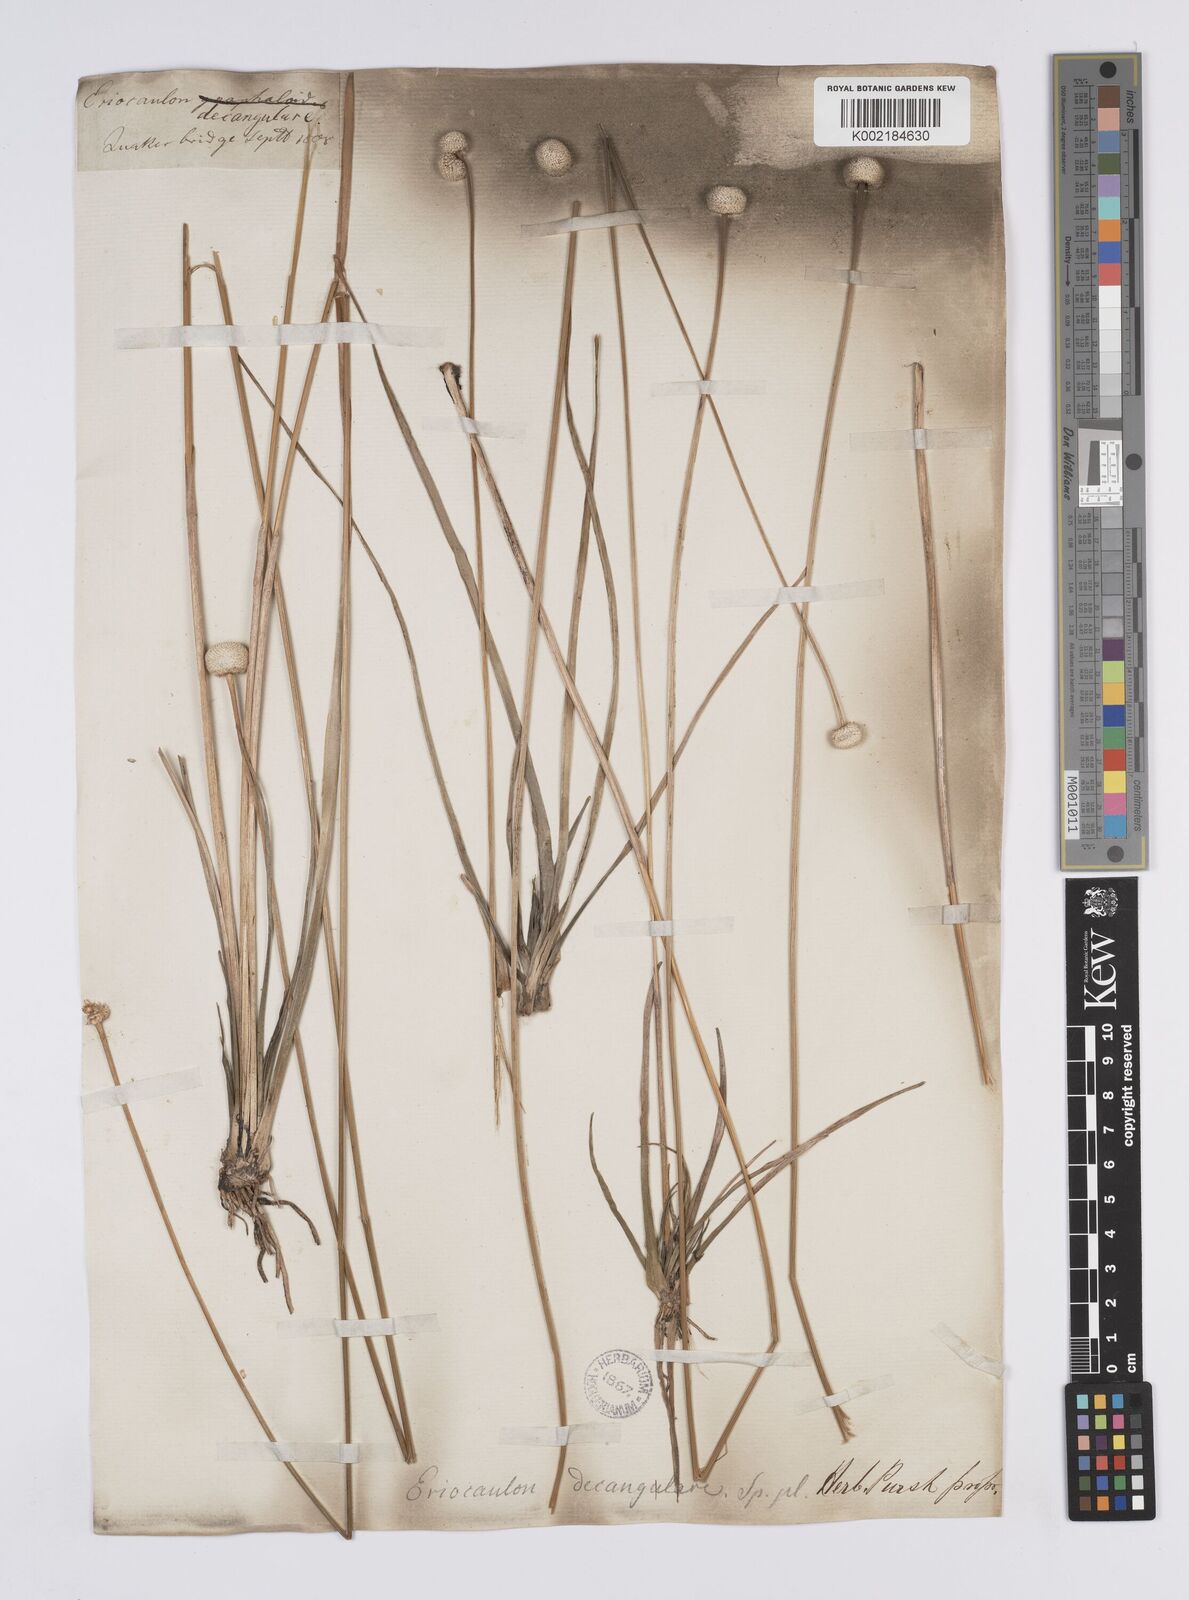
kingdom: Plantae
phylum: Tracheophyta
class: Liliopsida
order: Poales
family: Eriocaulaceae
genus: Eriocaulon
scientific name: Eriocaulon decangulare
